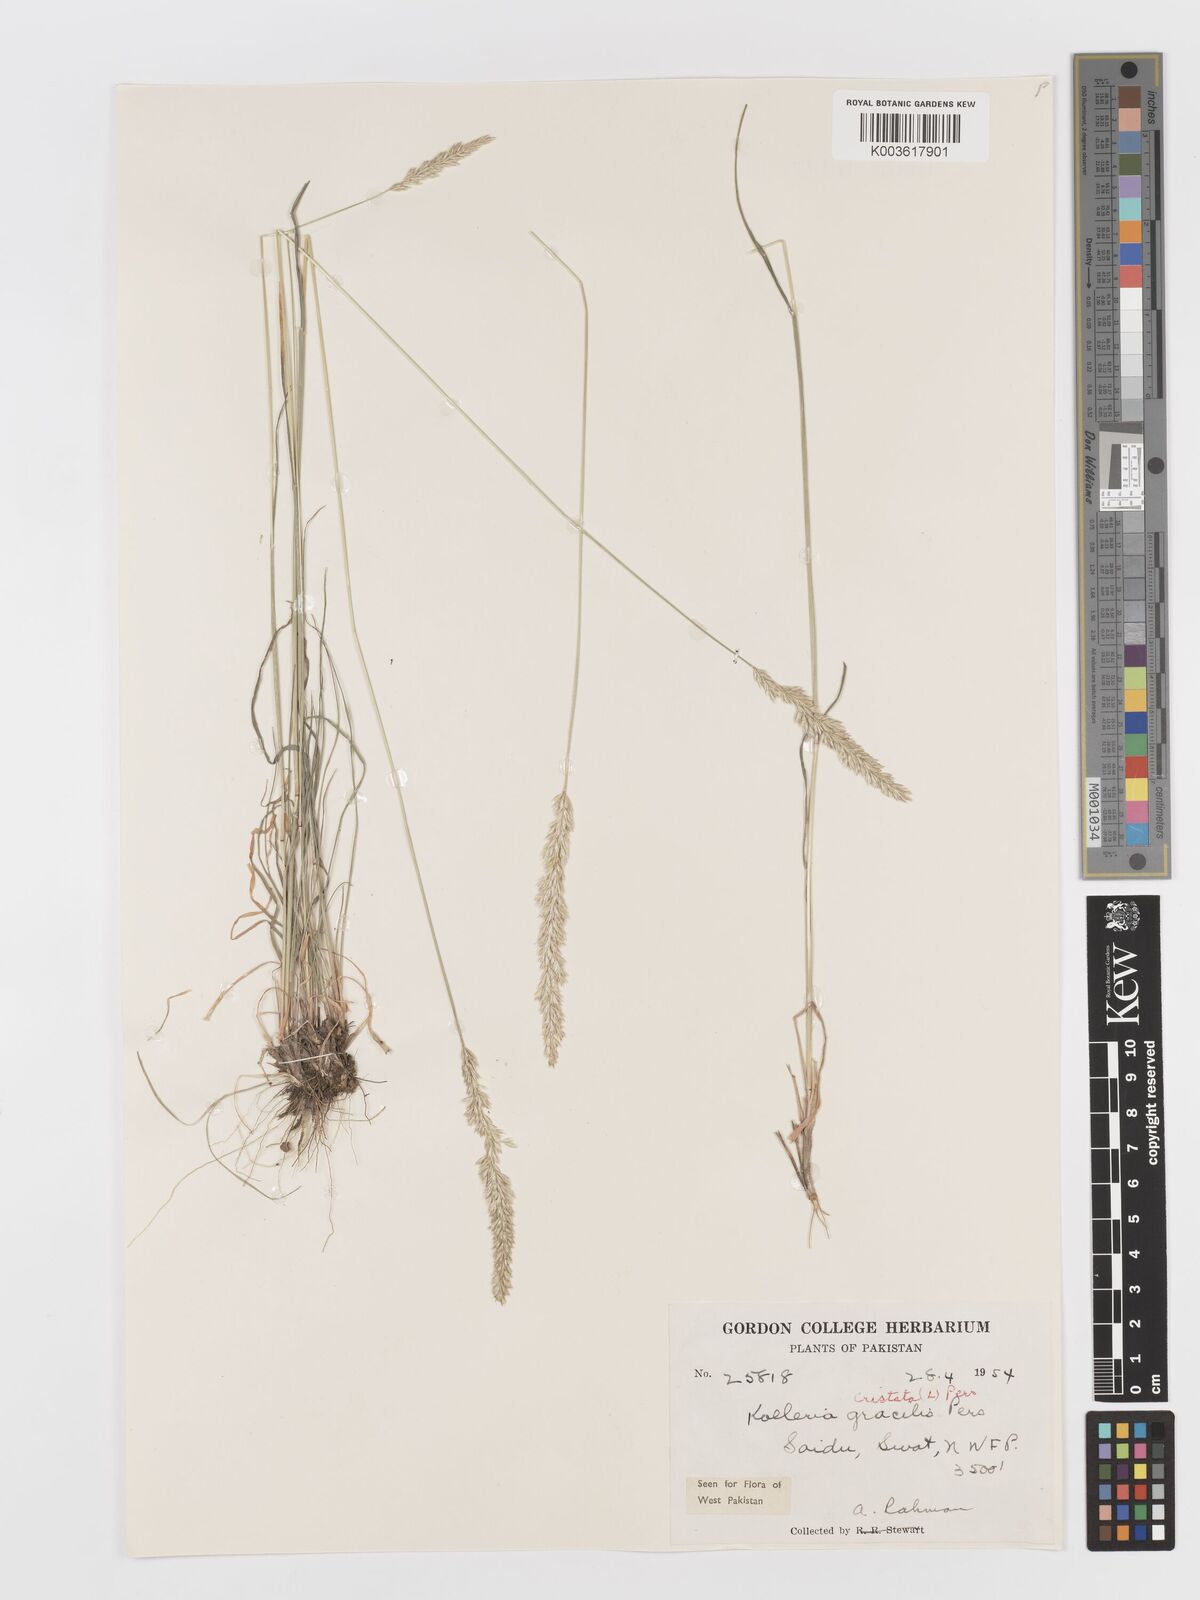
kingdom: Plantae
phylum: Tracheophyta
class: Liliopsida
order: Poales
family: Poaceae
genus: Koeleria
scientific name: Koeleria
